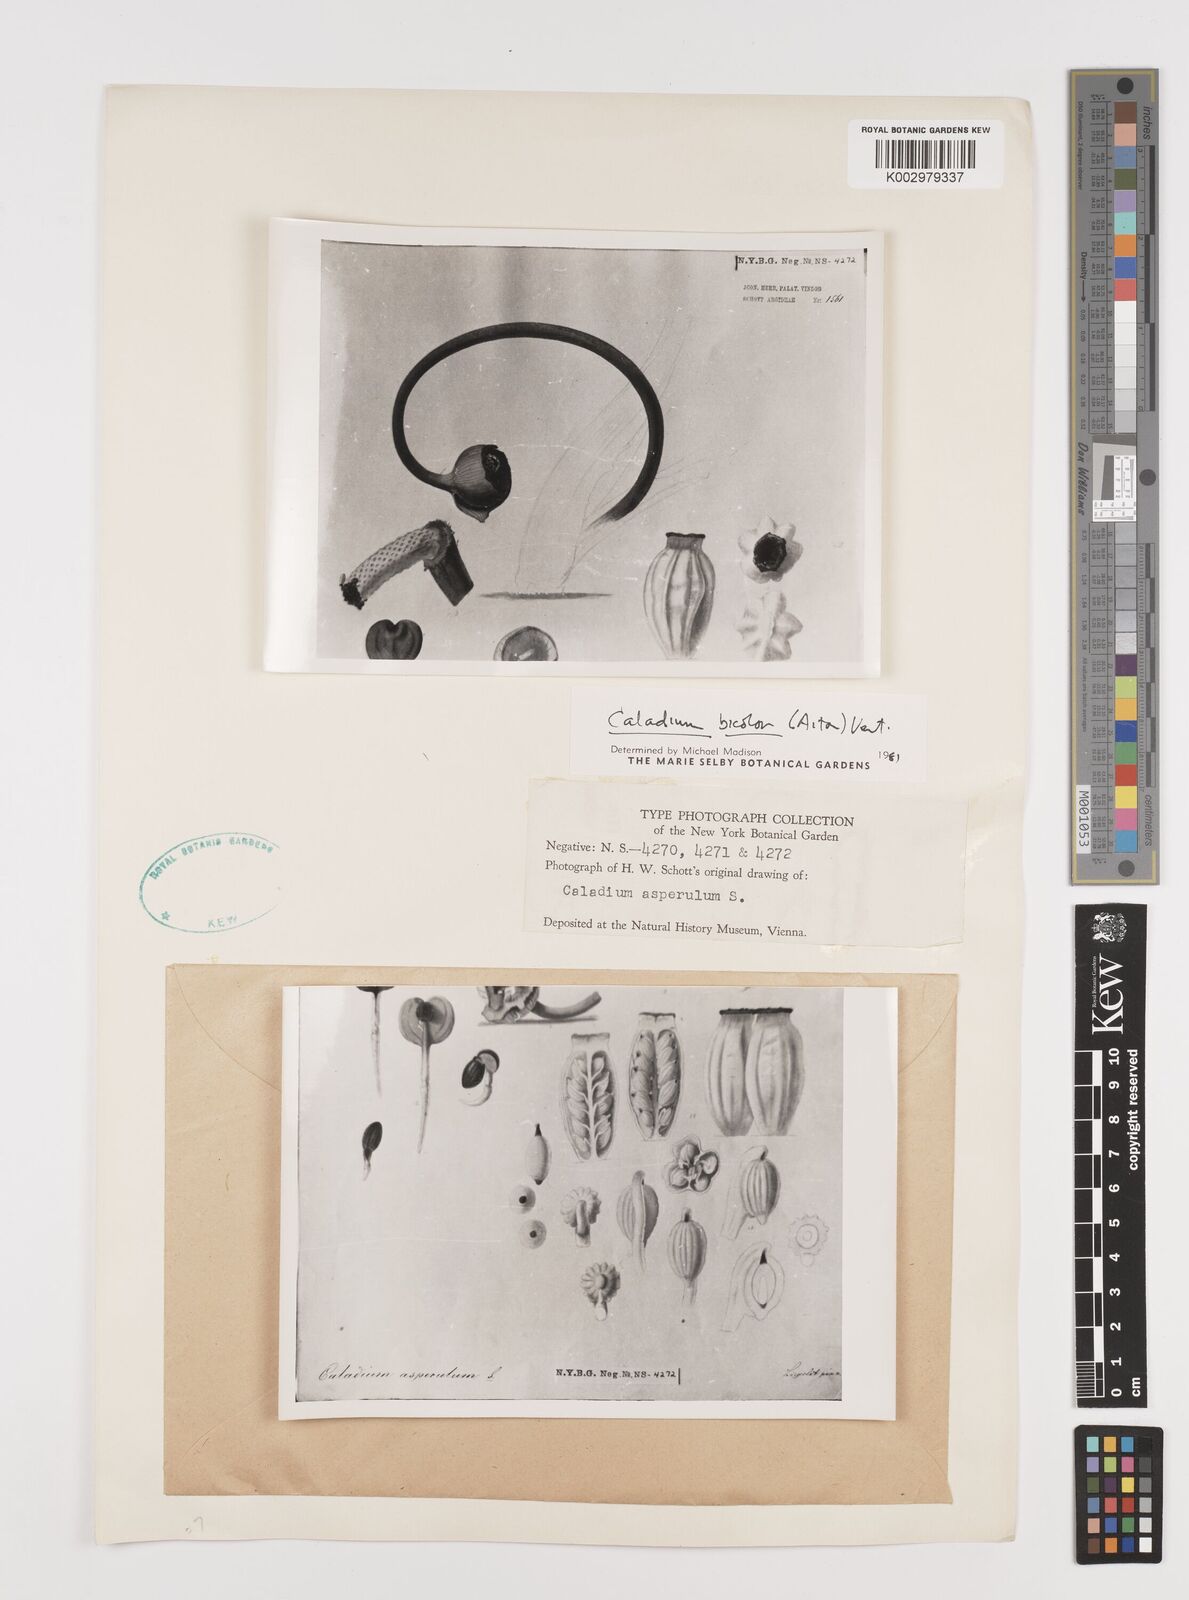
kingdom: Plantae
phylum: Tracheophyta
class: Liliopsida
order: Alismatales
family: Araceae
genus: Caladium
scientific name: Caladium bicolor
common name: Artist's pallet
